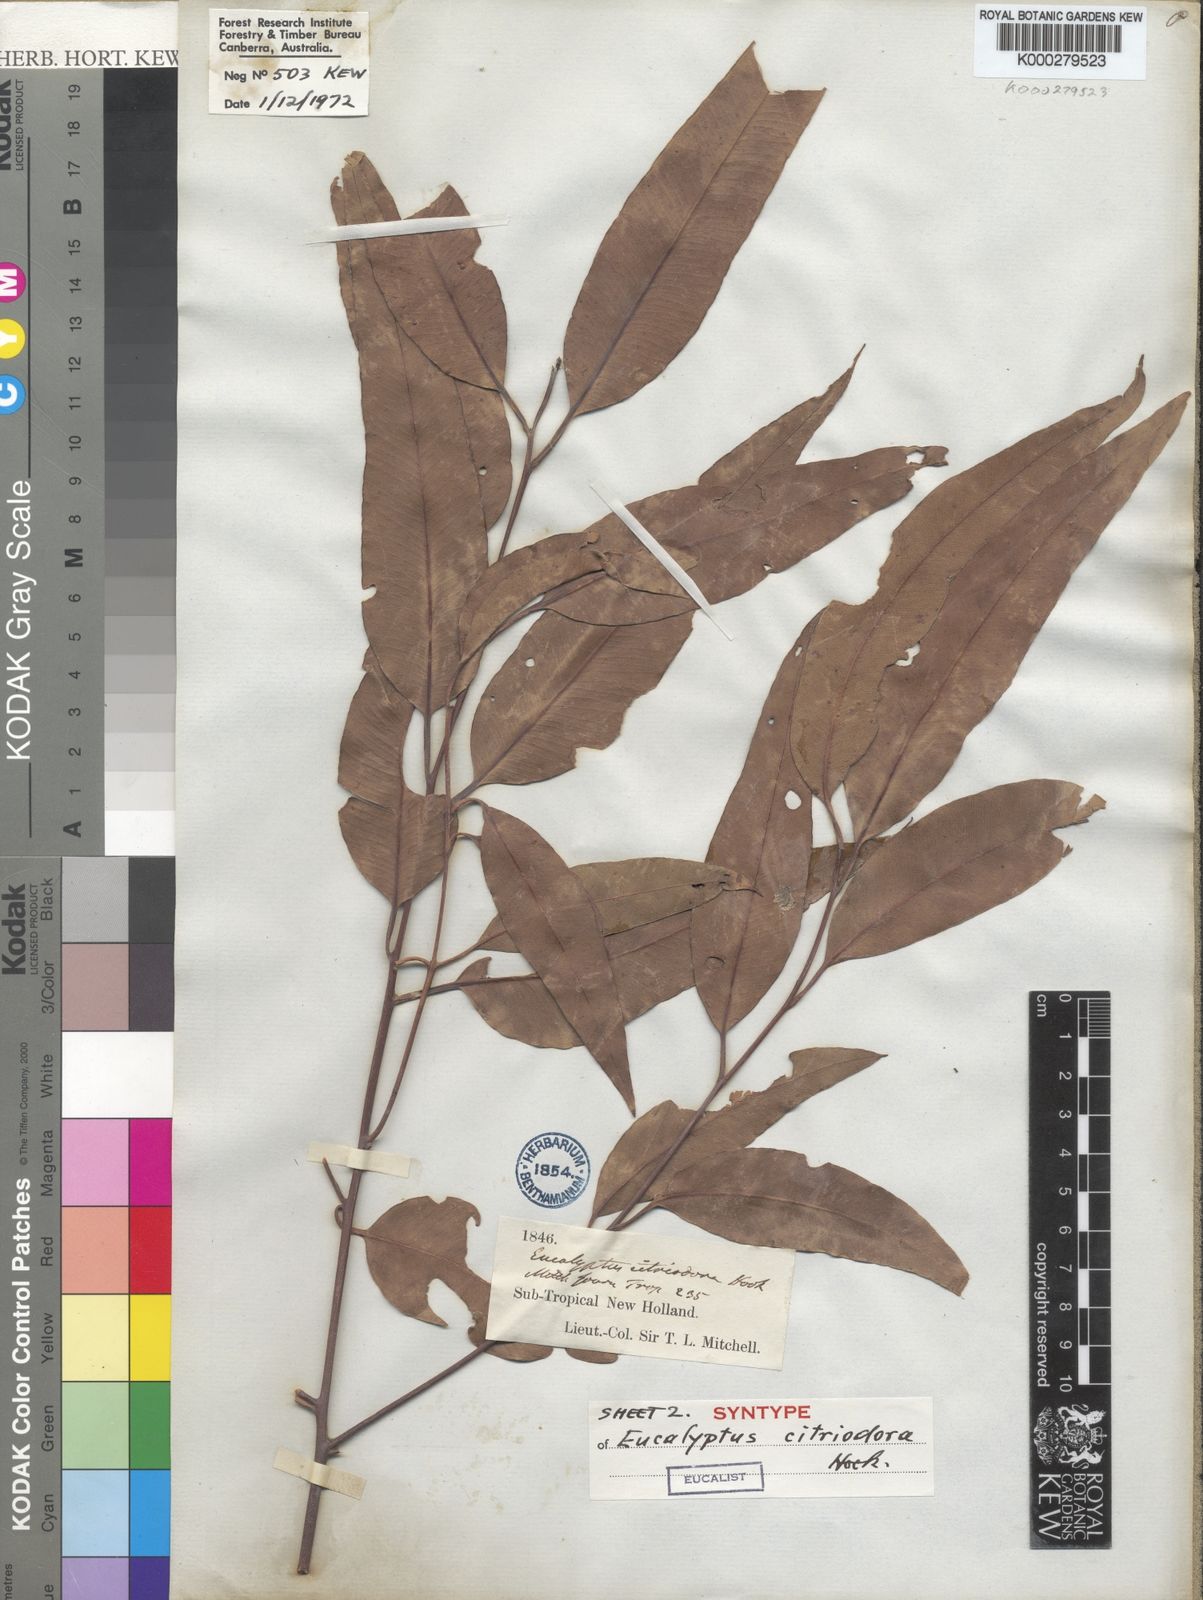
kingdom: Plantae
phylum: Tracheophyta
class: Magnoliopsida
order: Myrtales
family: Myrtaceae
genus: Corymbia
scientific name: Corymbia citriodora
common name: Lemonscented gum
